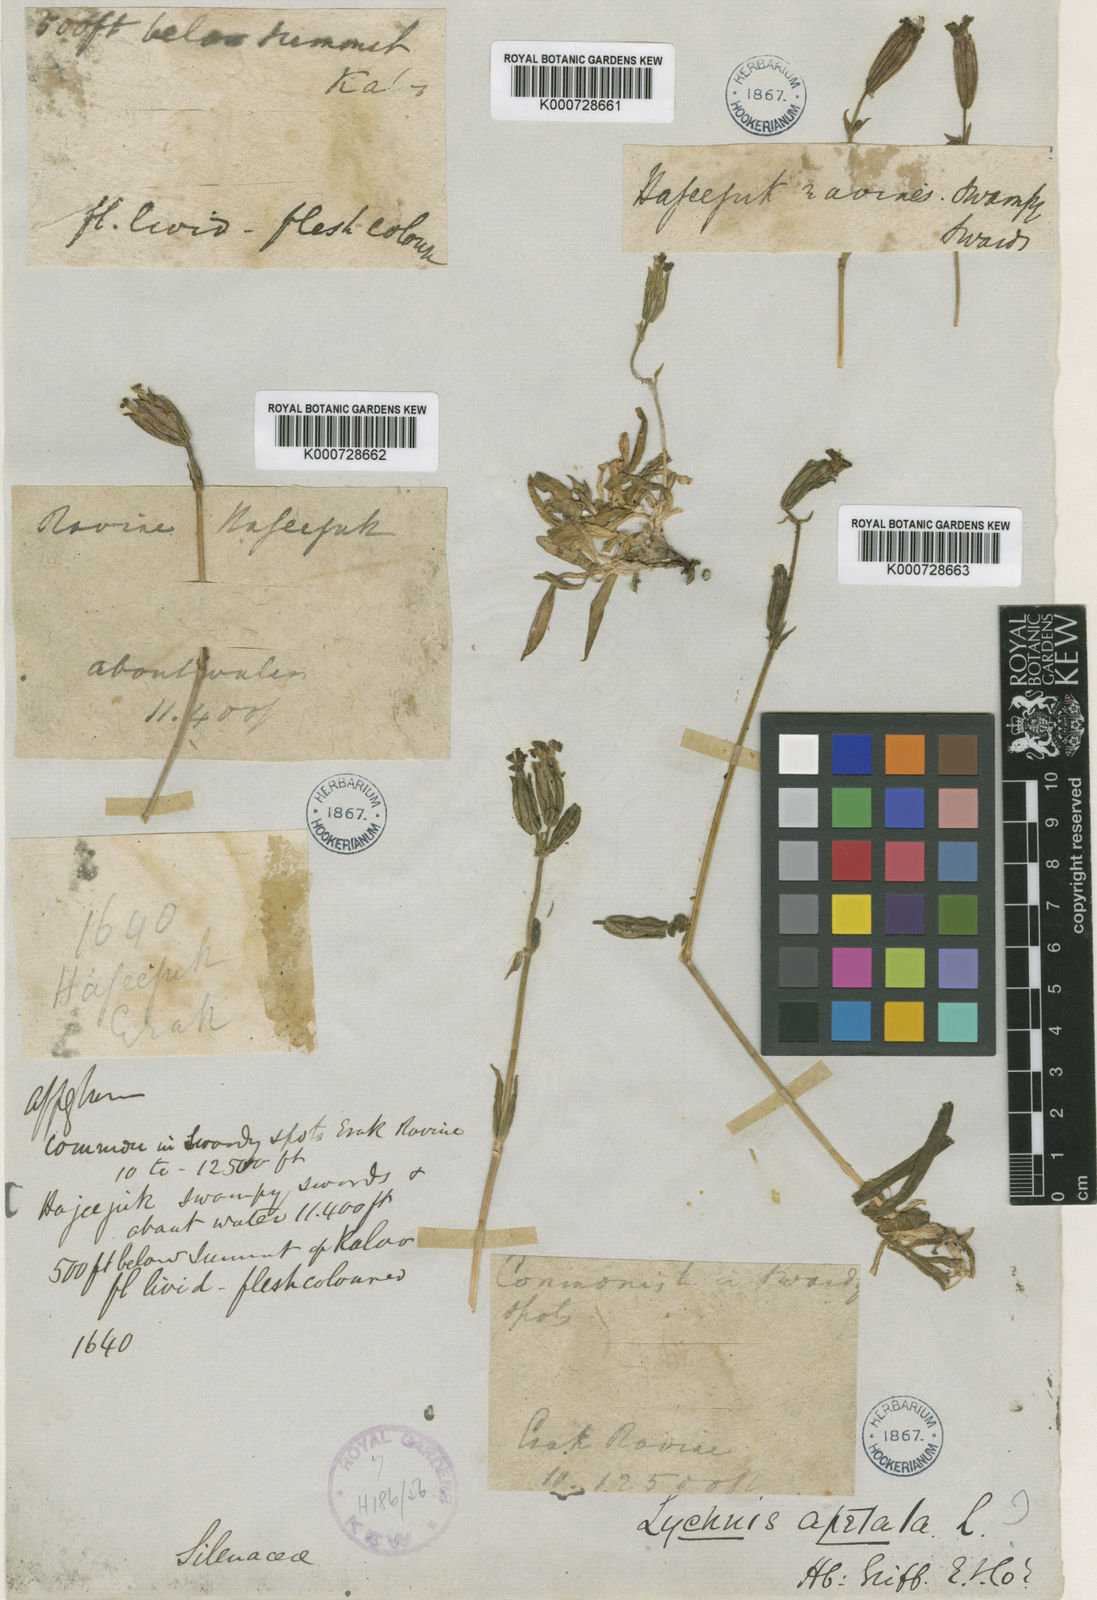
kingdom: Plantae
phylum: Tracheophyta
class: Magnoliopsida
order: Caryophyllales
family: Caryophyllaceae
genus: Silene
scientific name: Silene luciliae
